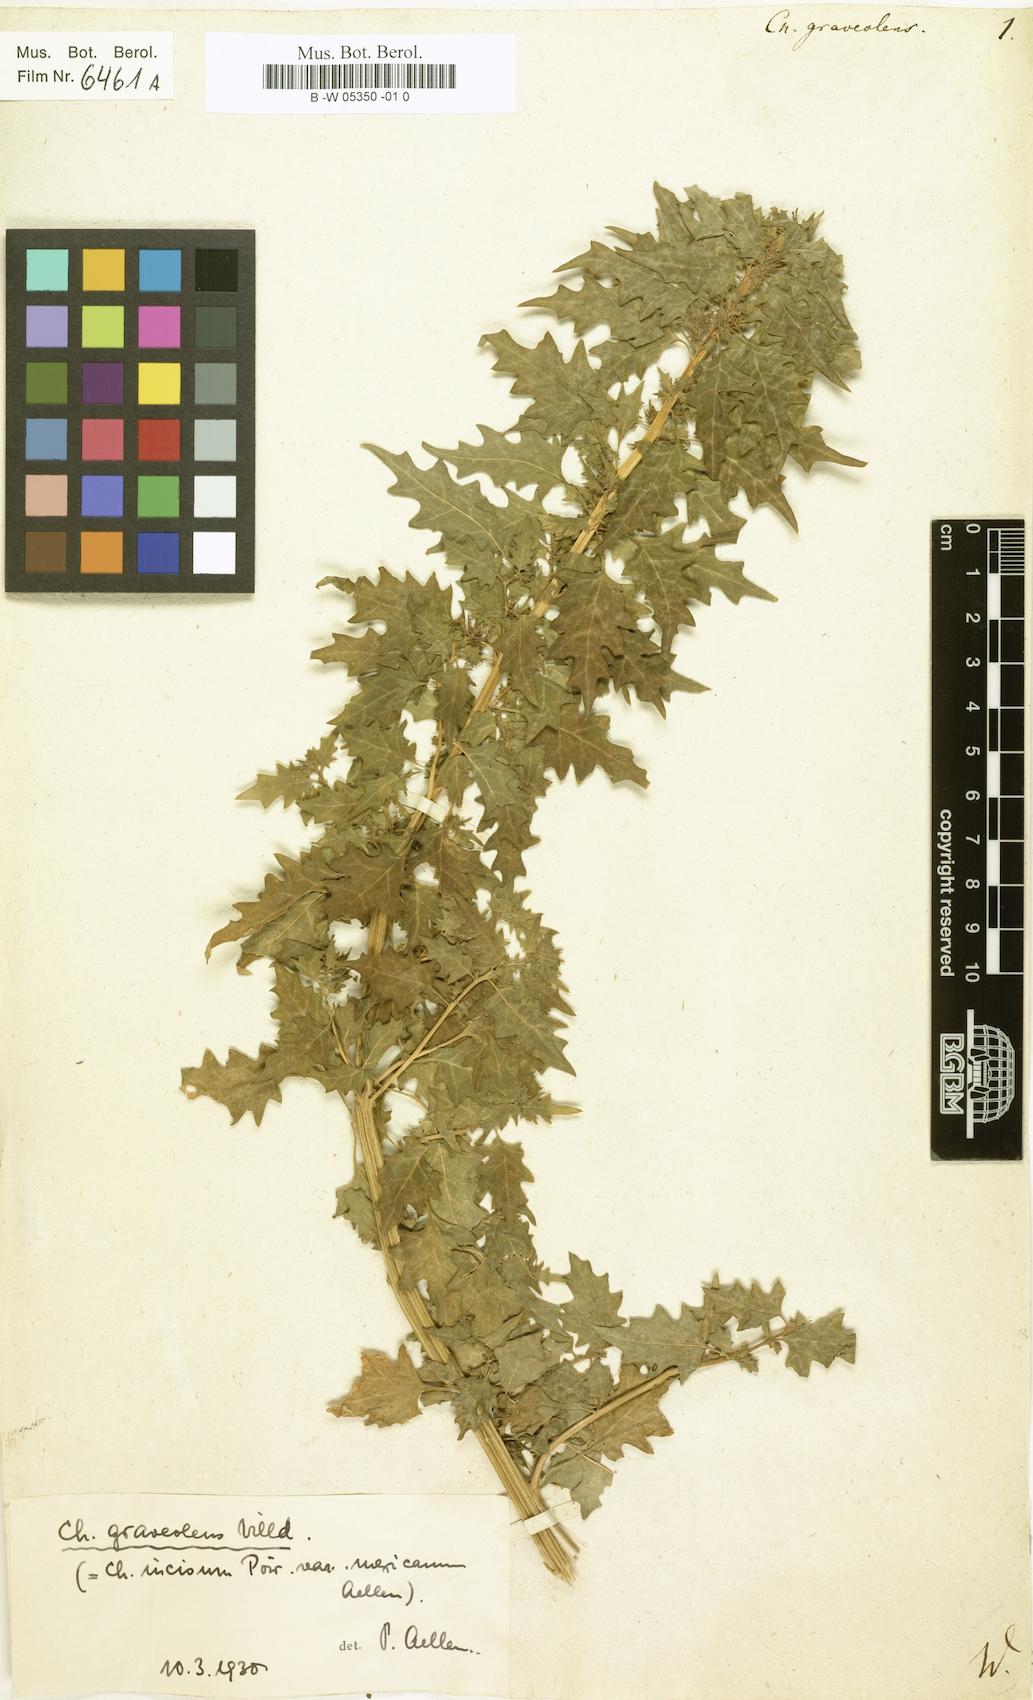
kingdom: Plantae
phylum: Tracheophyta
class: Magnoliopsida
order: Caryophyllales
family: Amaranthaceae
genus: Dysphania
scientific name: Dysphania graveolens
